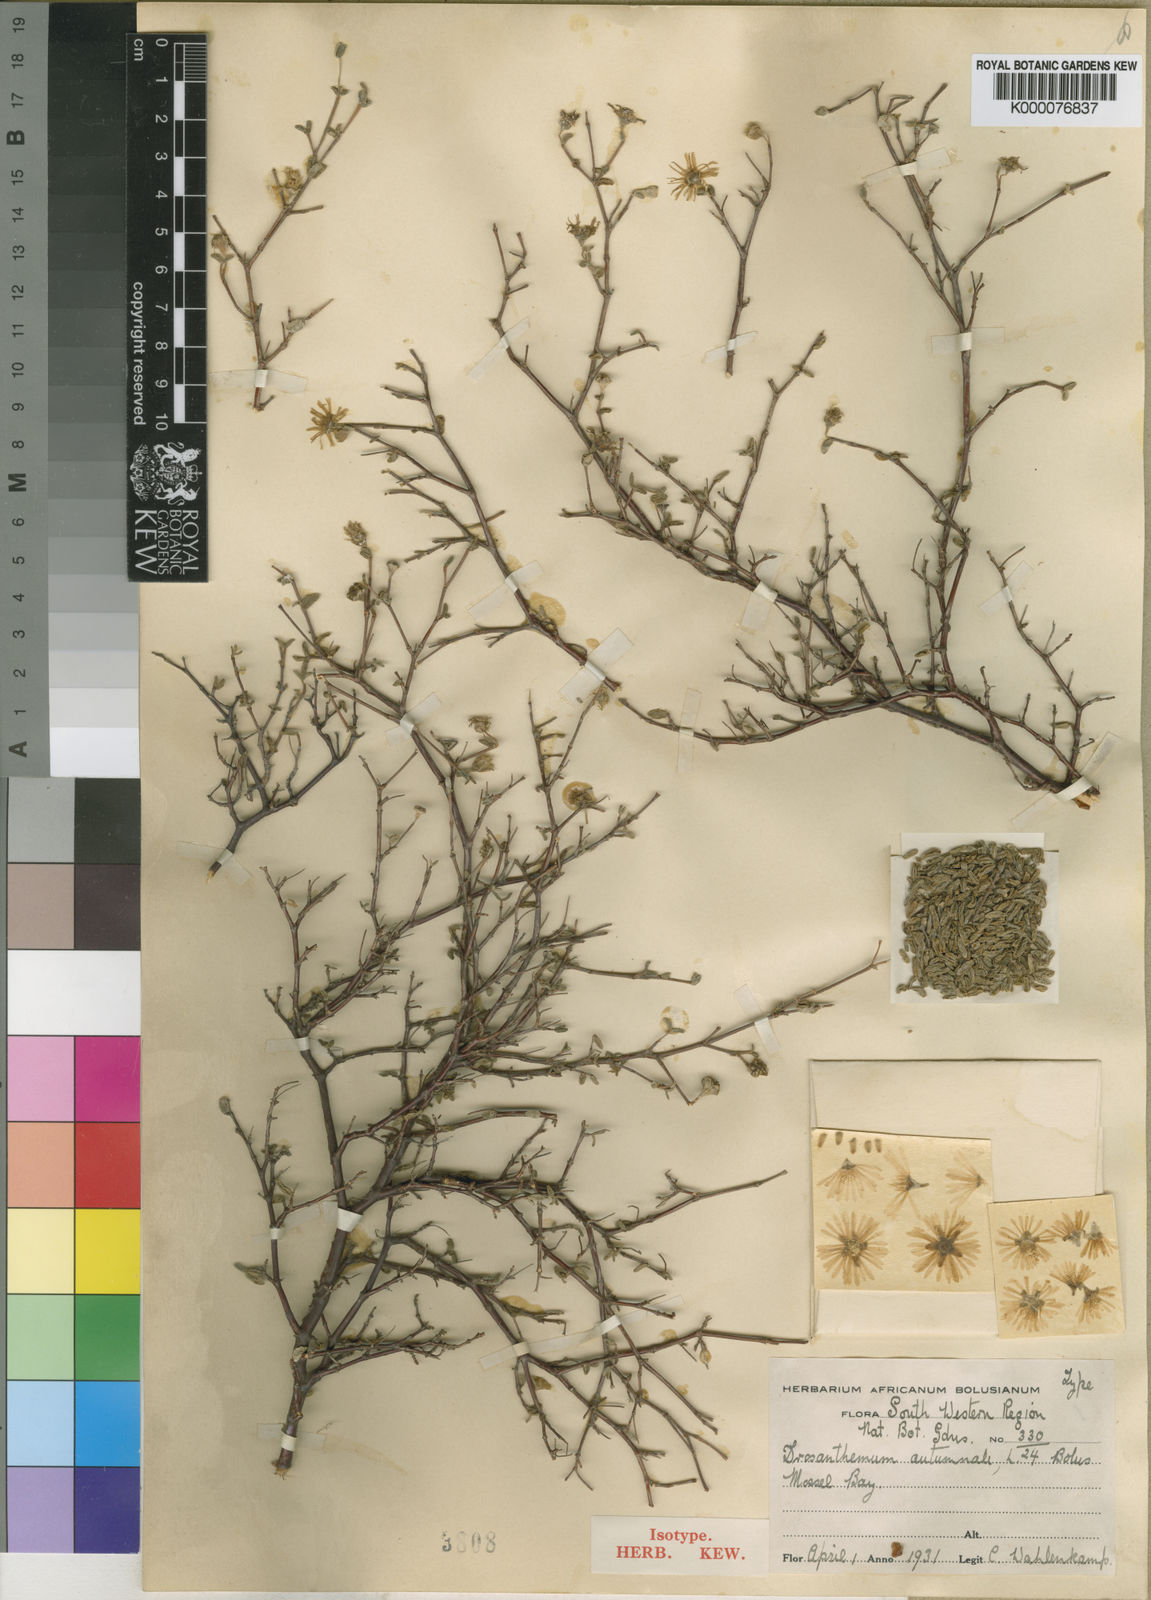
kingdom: Plantae
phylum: Tracheophyta
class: Magnoliopsida
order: Caryophyllales
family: Aizoaceae
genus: Drosanthemum
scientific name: Drosanthemum autumnale
